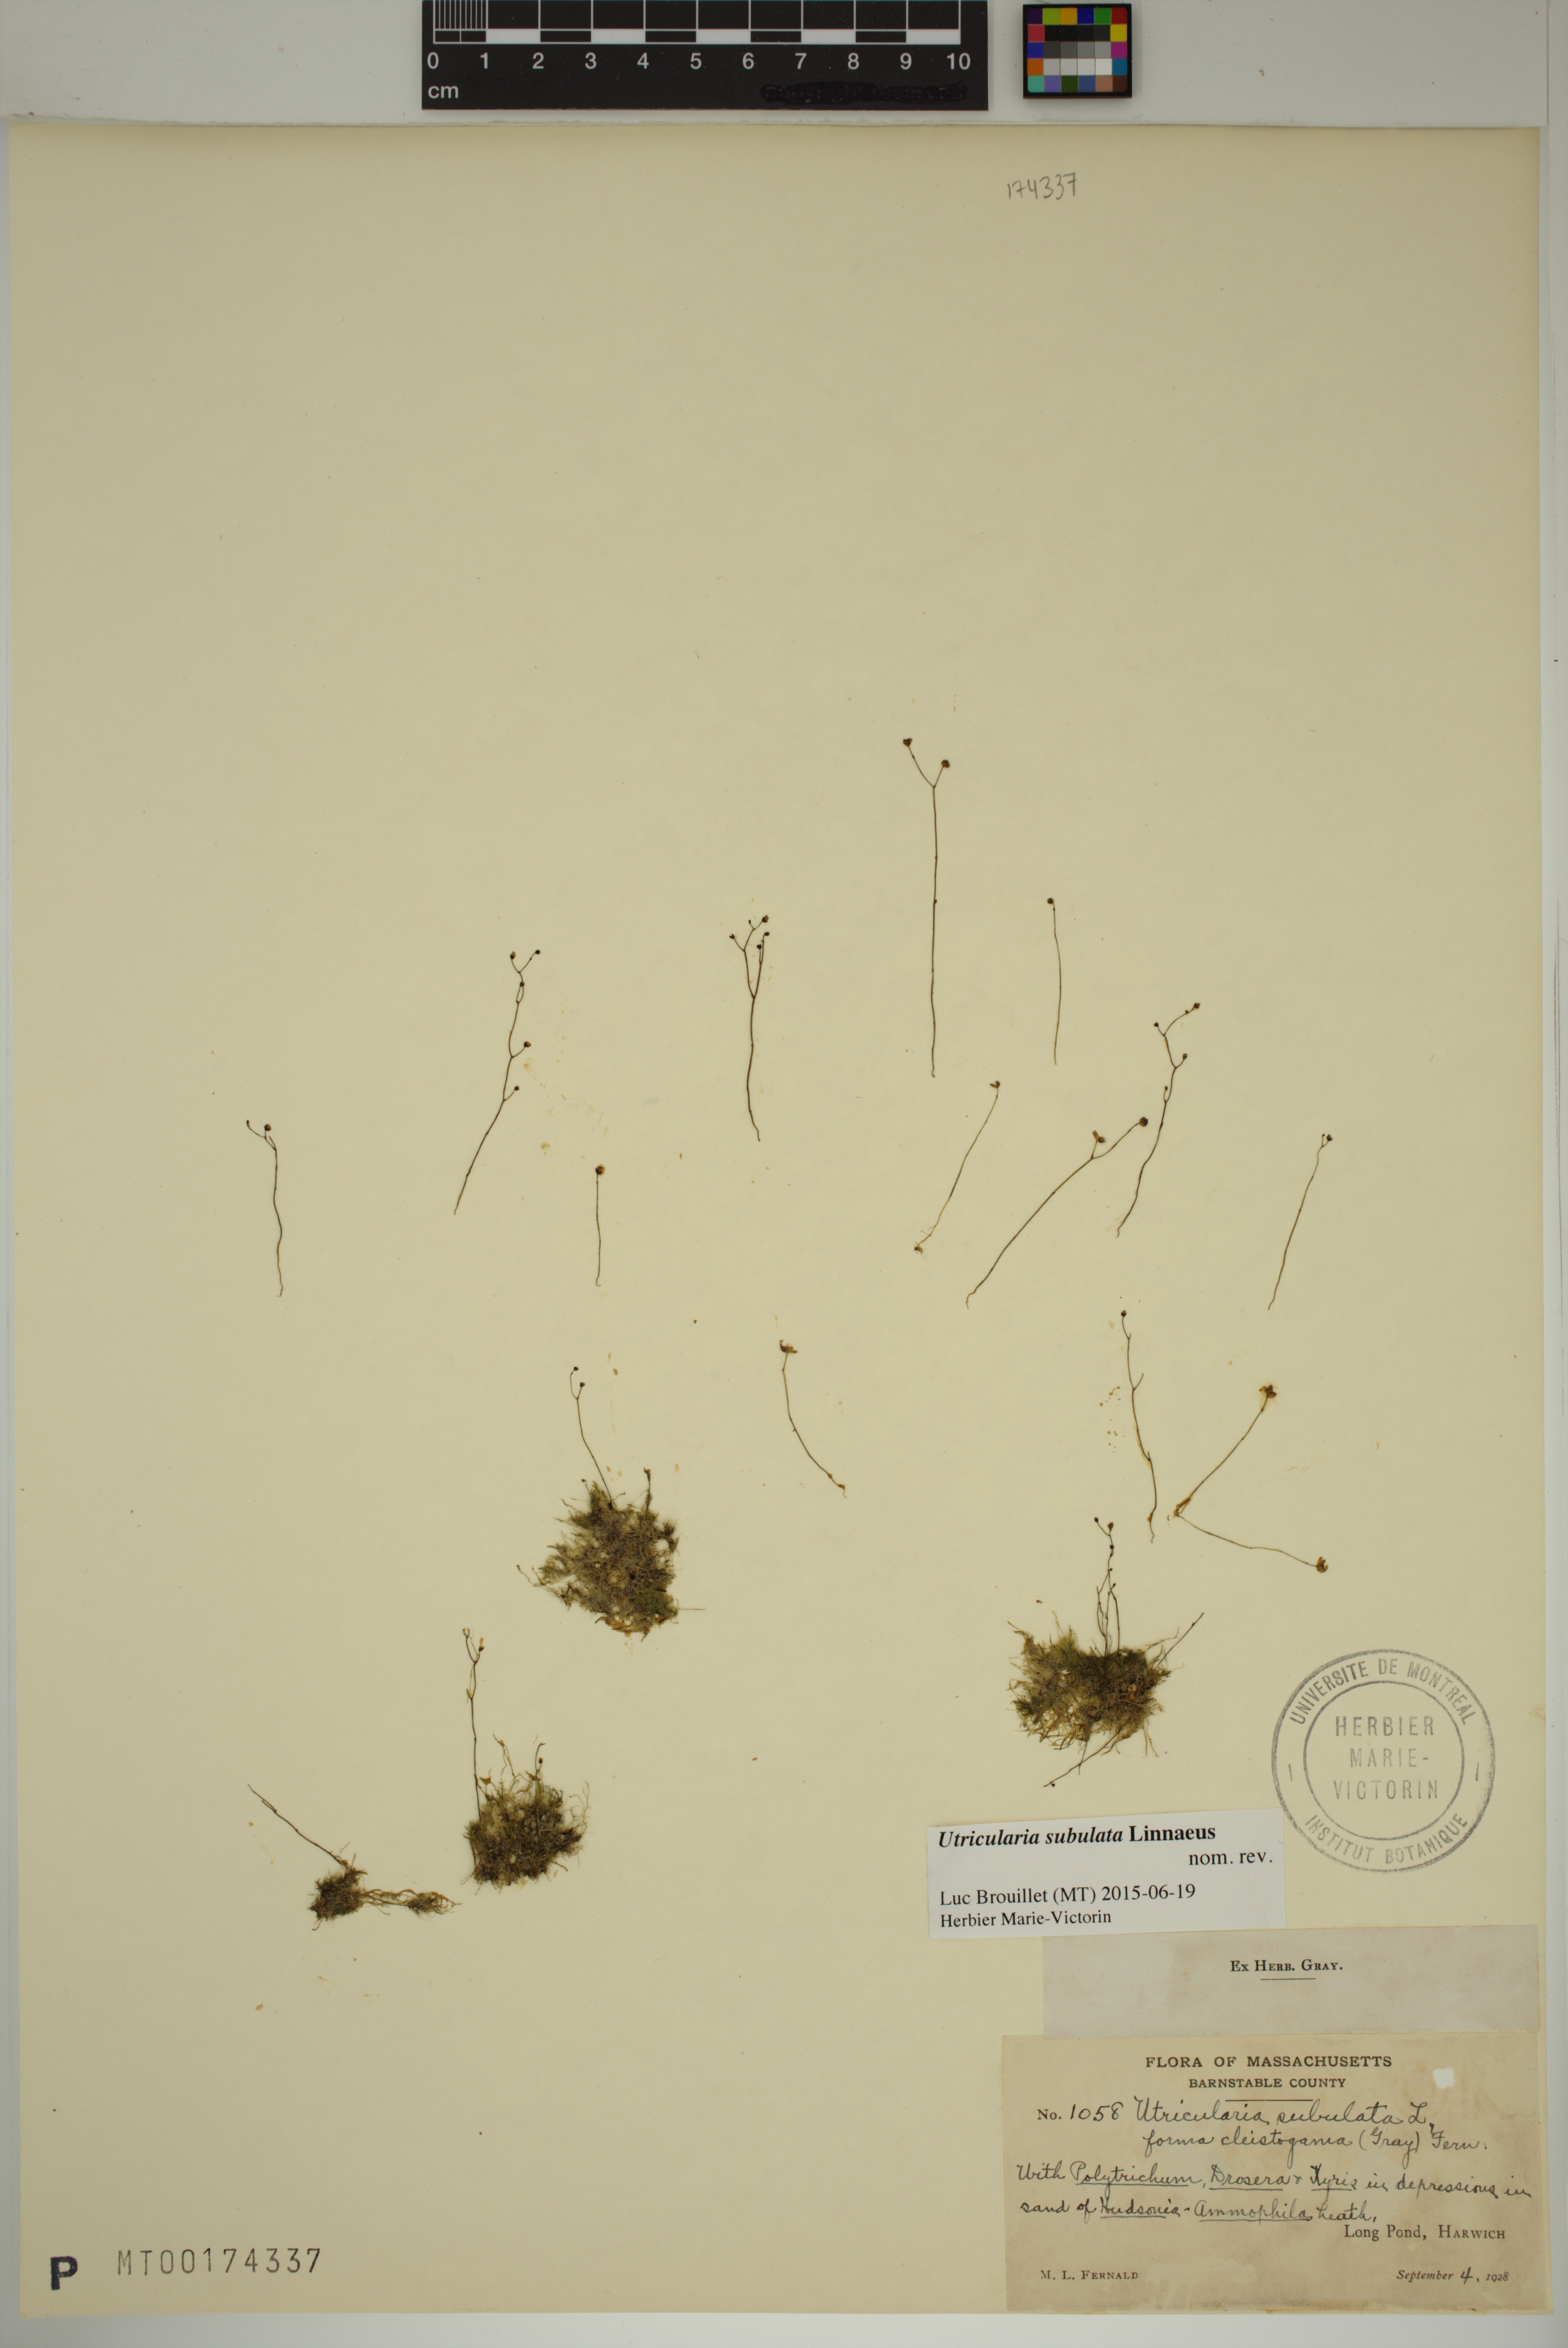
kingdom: Plantae
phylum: Tracheophyta
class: Magnoliopsida
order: Lamiales
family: Lentibulariaceae
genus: Utricularia
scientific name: Utricularia subulata
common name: Tiny bladderwort
